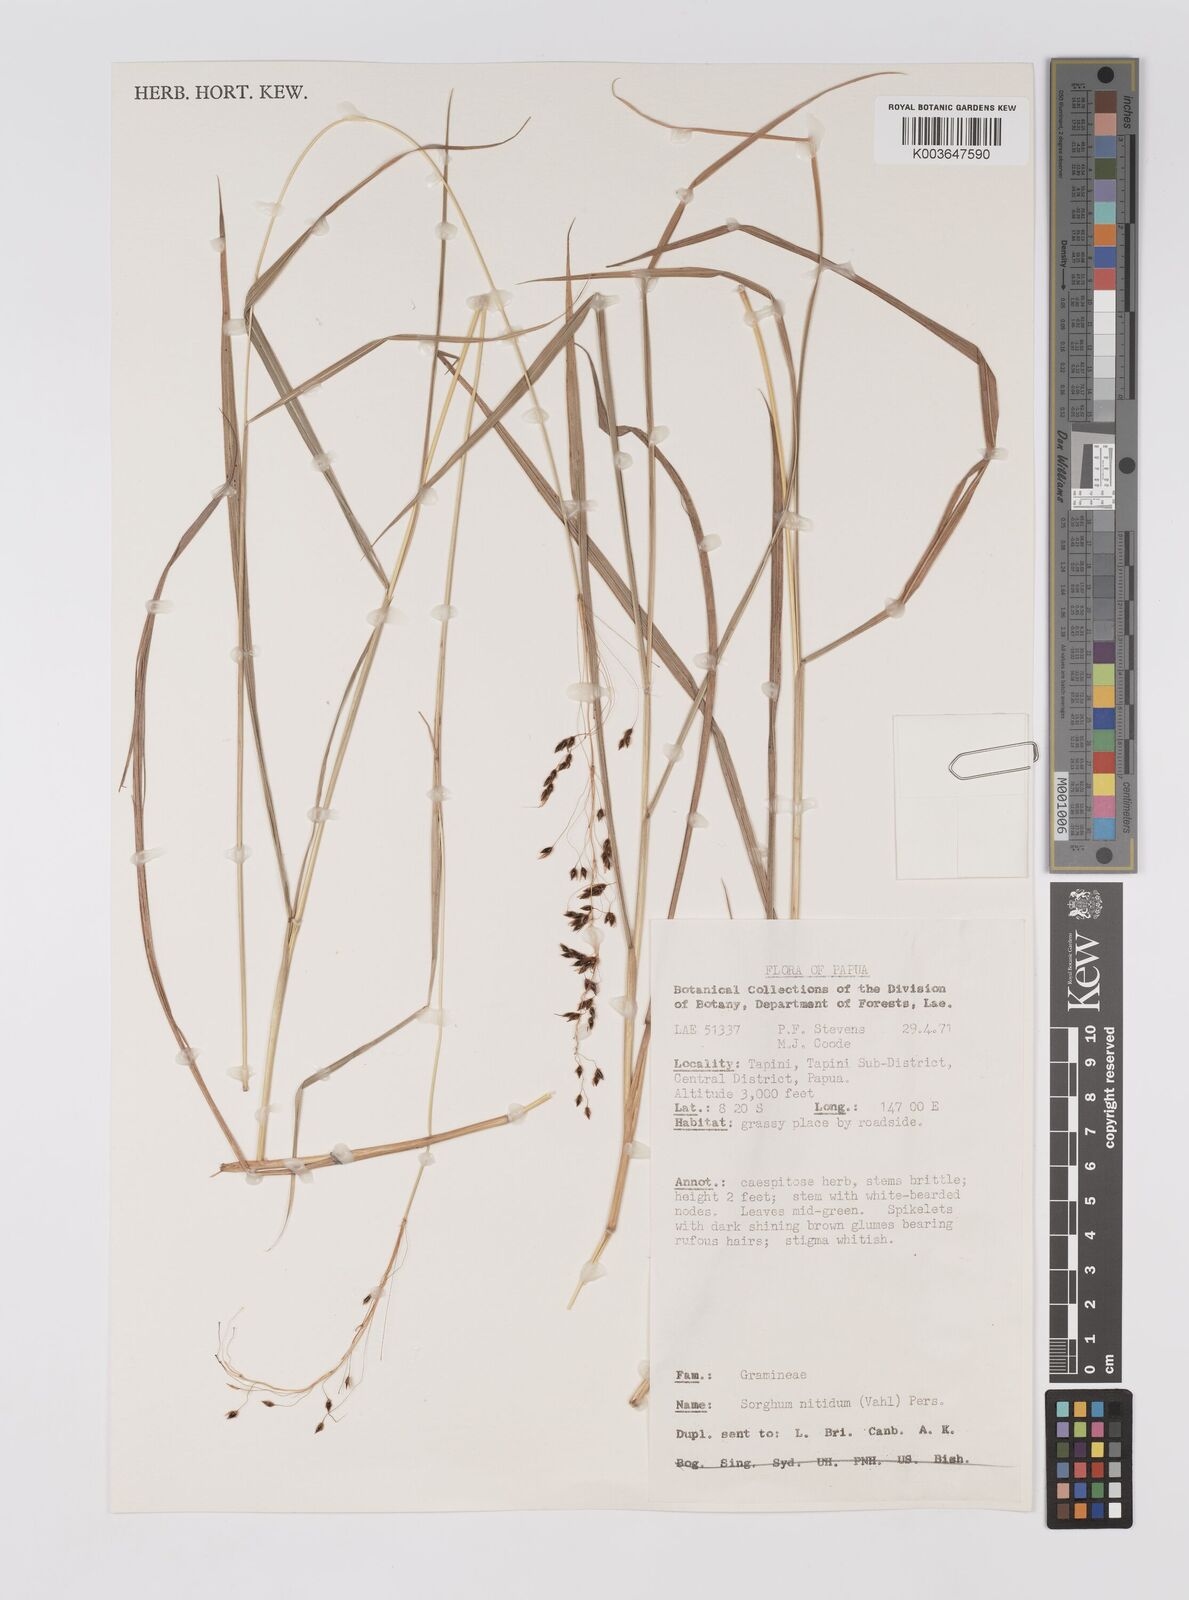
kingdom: Plantae
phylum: Tracheophyta
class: Liliopsida
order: Poales
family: Poaceae
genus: Sorghum
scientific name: Sorghum nitidum
